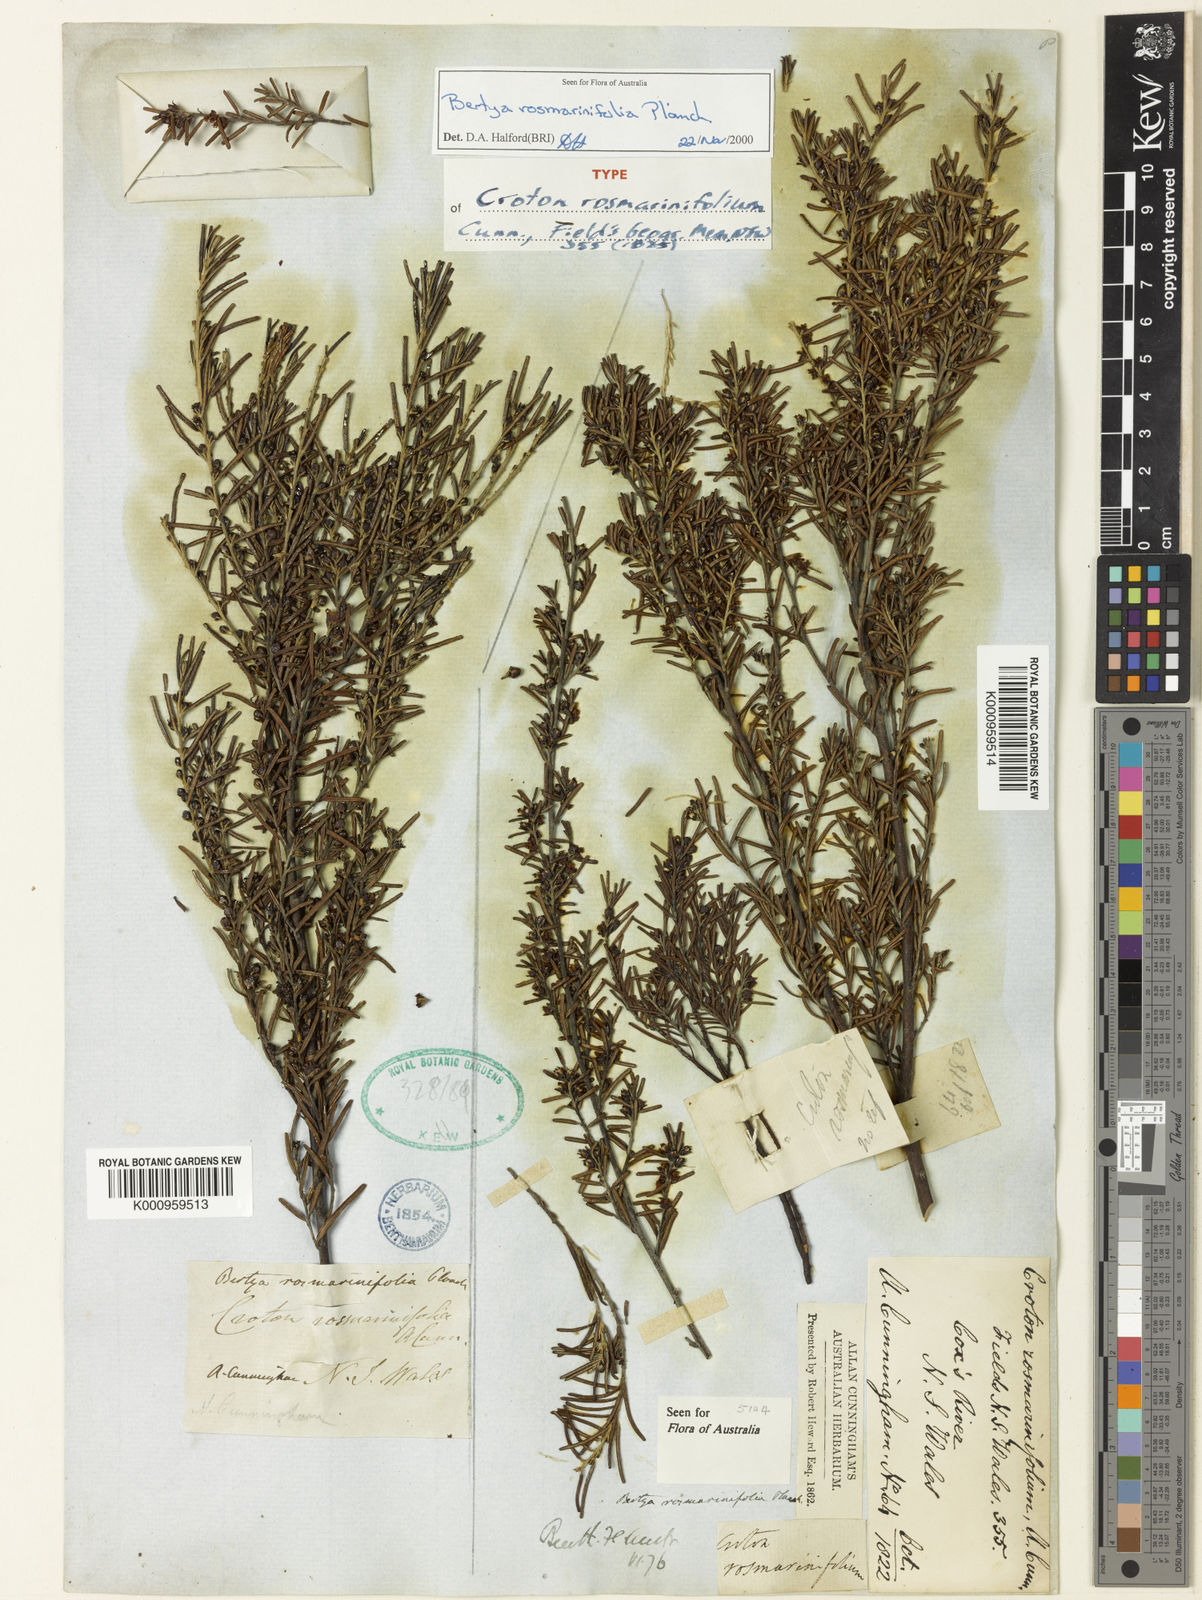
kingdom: Plantae
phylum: Tracheophyta
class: Magnoliopsida
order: Malpighiales
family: Euphorbiaceae
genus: Bertya
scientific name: Bertya rosmarinifolia
